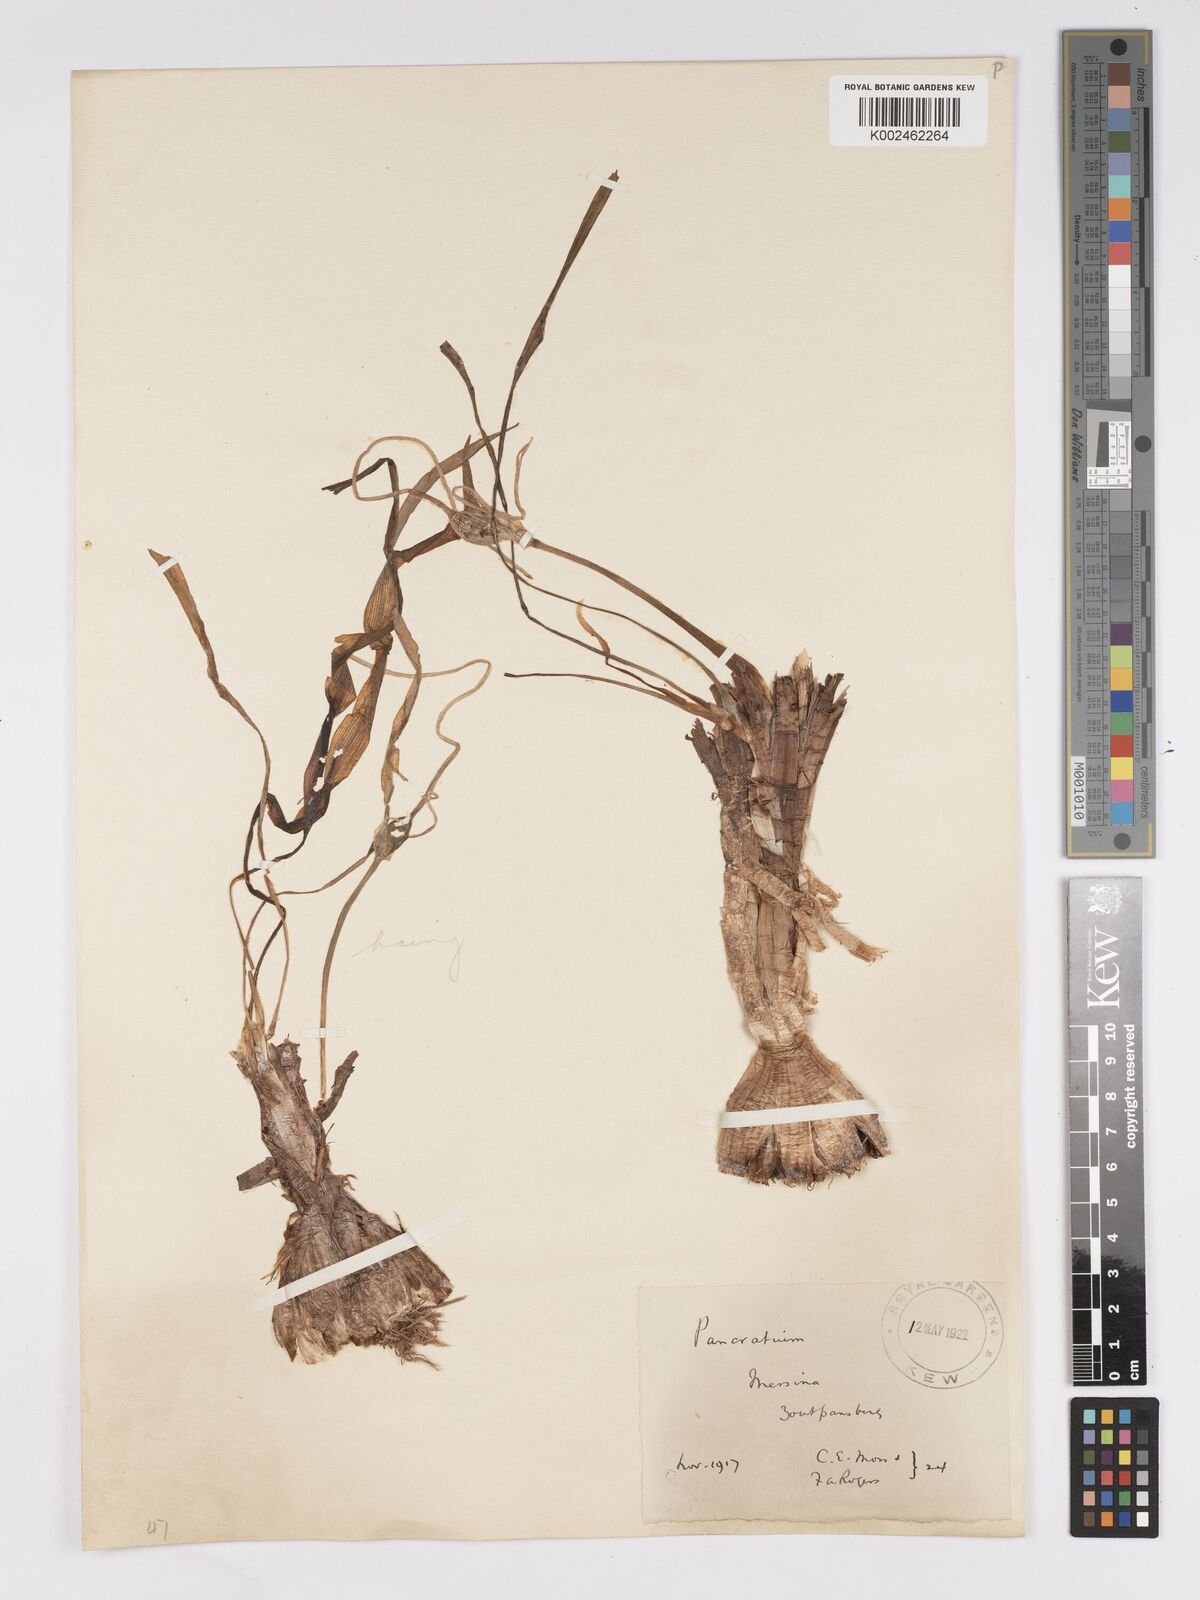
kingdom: Plantae
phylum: Tracheophyta
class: Liliopsida
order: Asparagales
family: Amaryllidaceae
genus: Pancratium
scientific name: Pancratium tenuifolium
